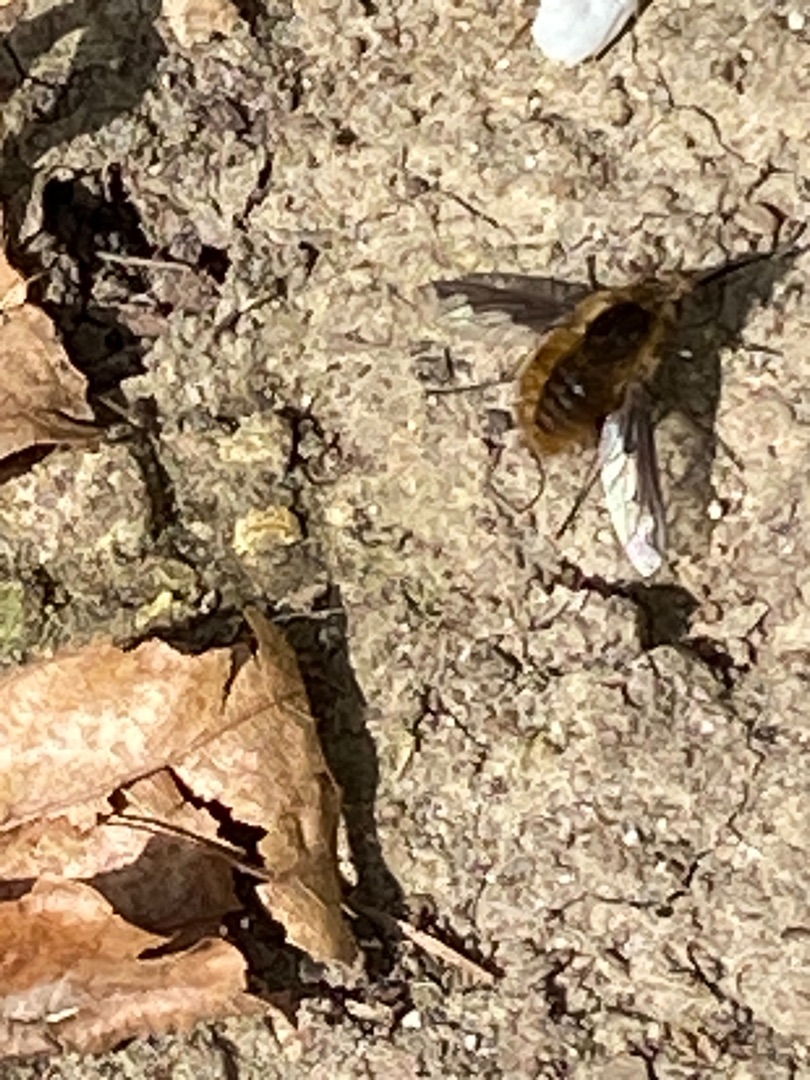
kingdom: Animalia
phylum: Arthropoda
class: Insecta
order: Diptera
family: Bombyliidae
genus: Bombylius
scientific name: Bombylius major
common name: Stor humleflue
